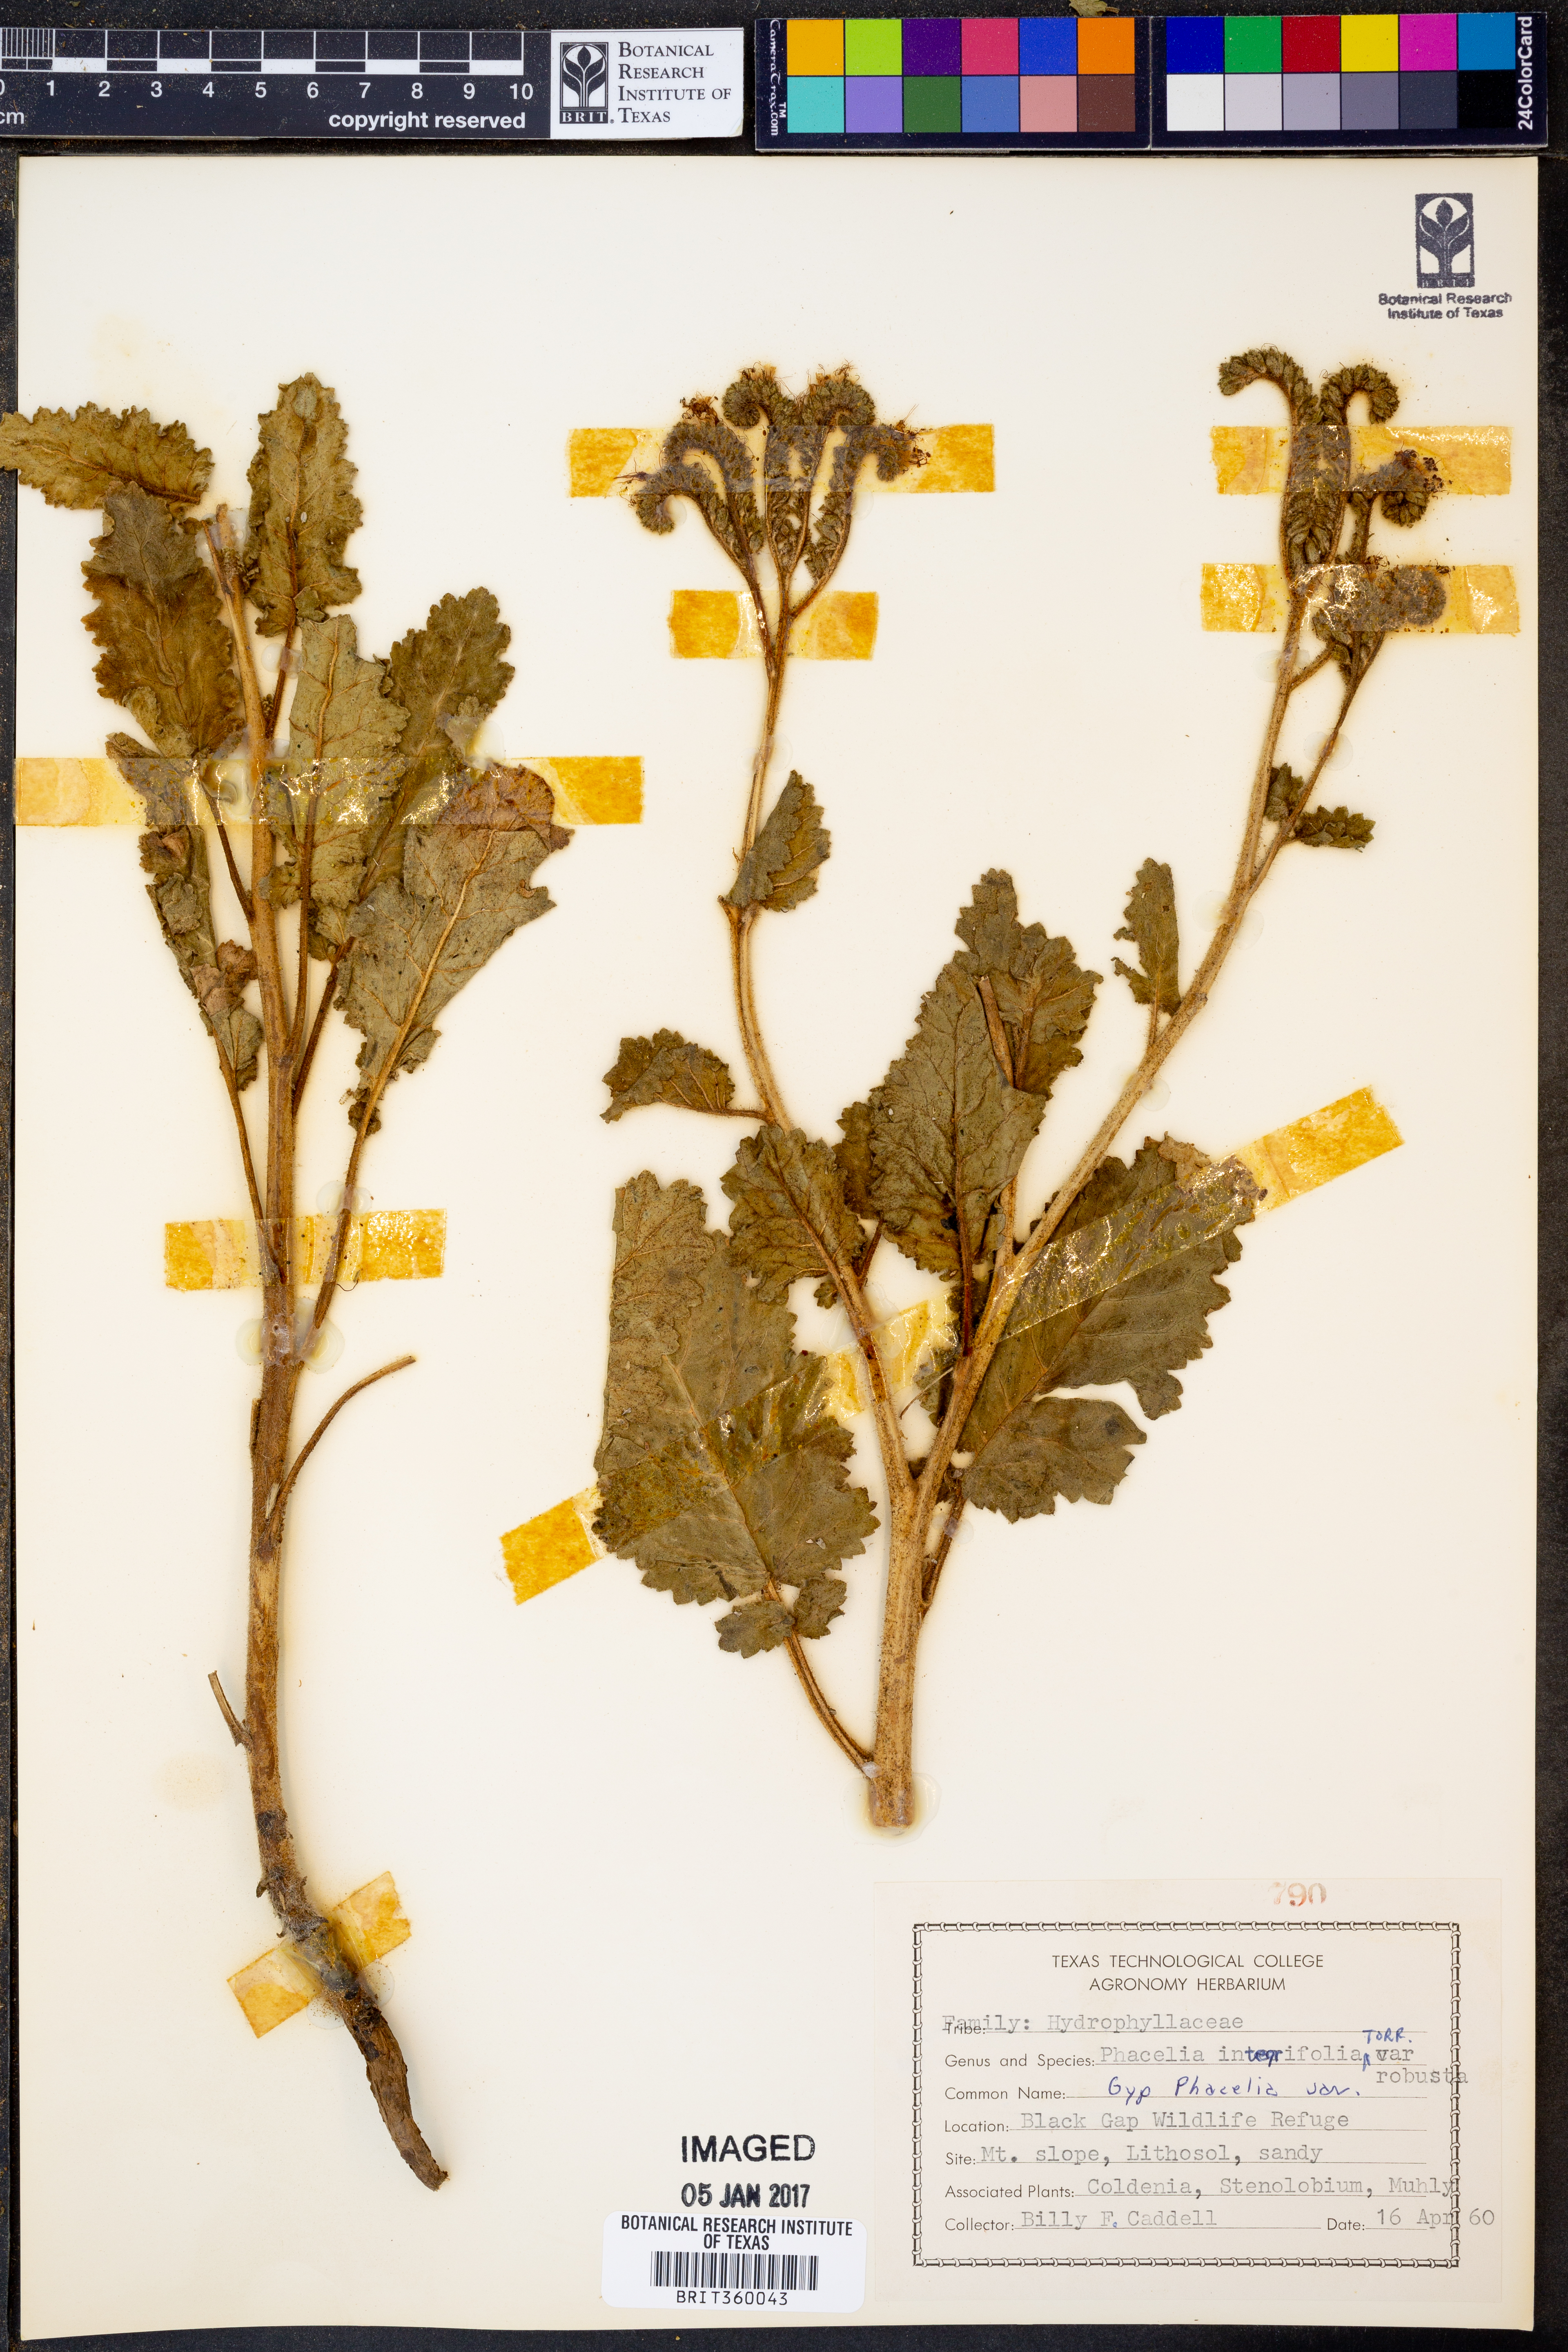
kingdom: Plantae
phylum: Tracheophyta
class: Magnoliopsida
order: Boraginales
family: Hydrophyllaceae
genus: Phacelia
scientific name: Phacelia robusta
